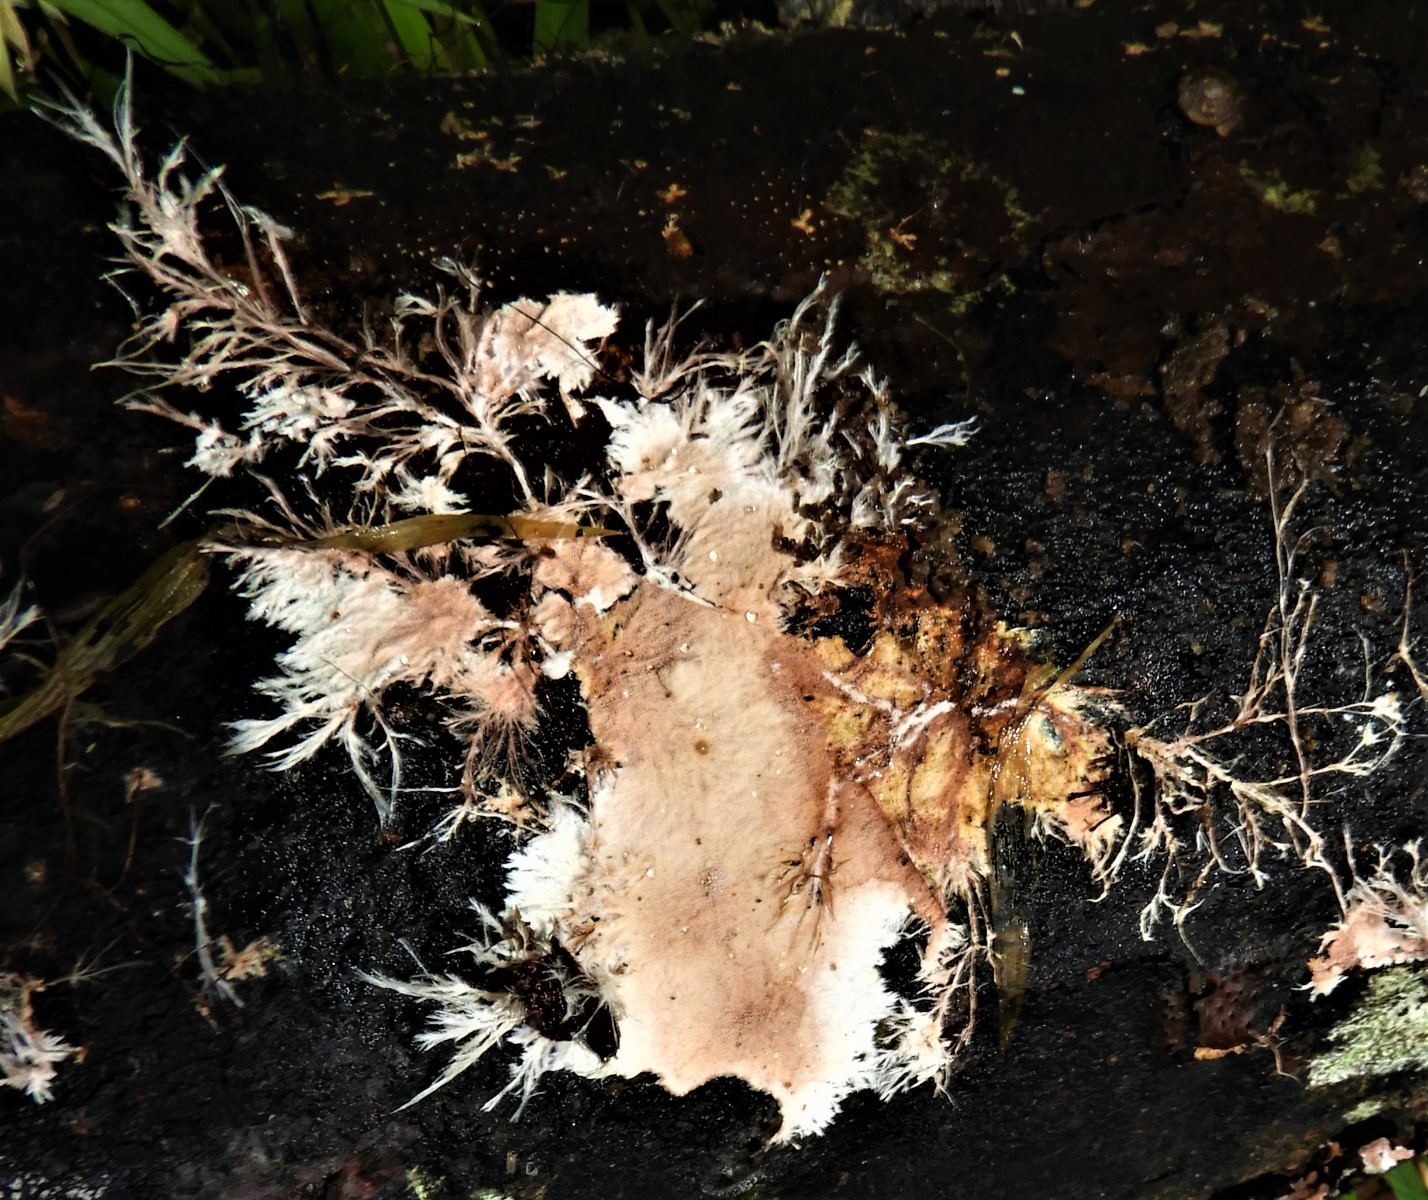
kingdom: Fungi
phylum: Basidiomycota
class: Agaricomycetes
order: Polyporales
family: Steccherinaceae
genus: Steccherinum
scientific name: Steccherinum fimbriatum
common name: trådet skønpig
